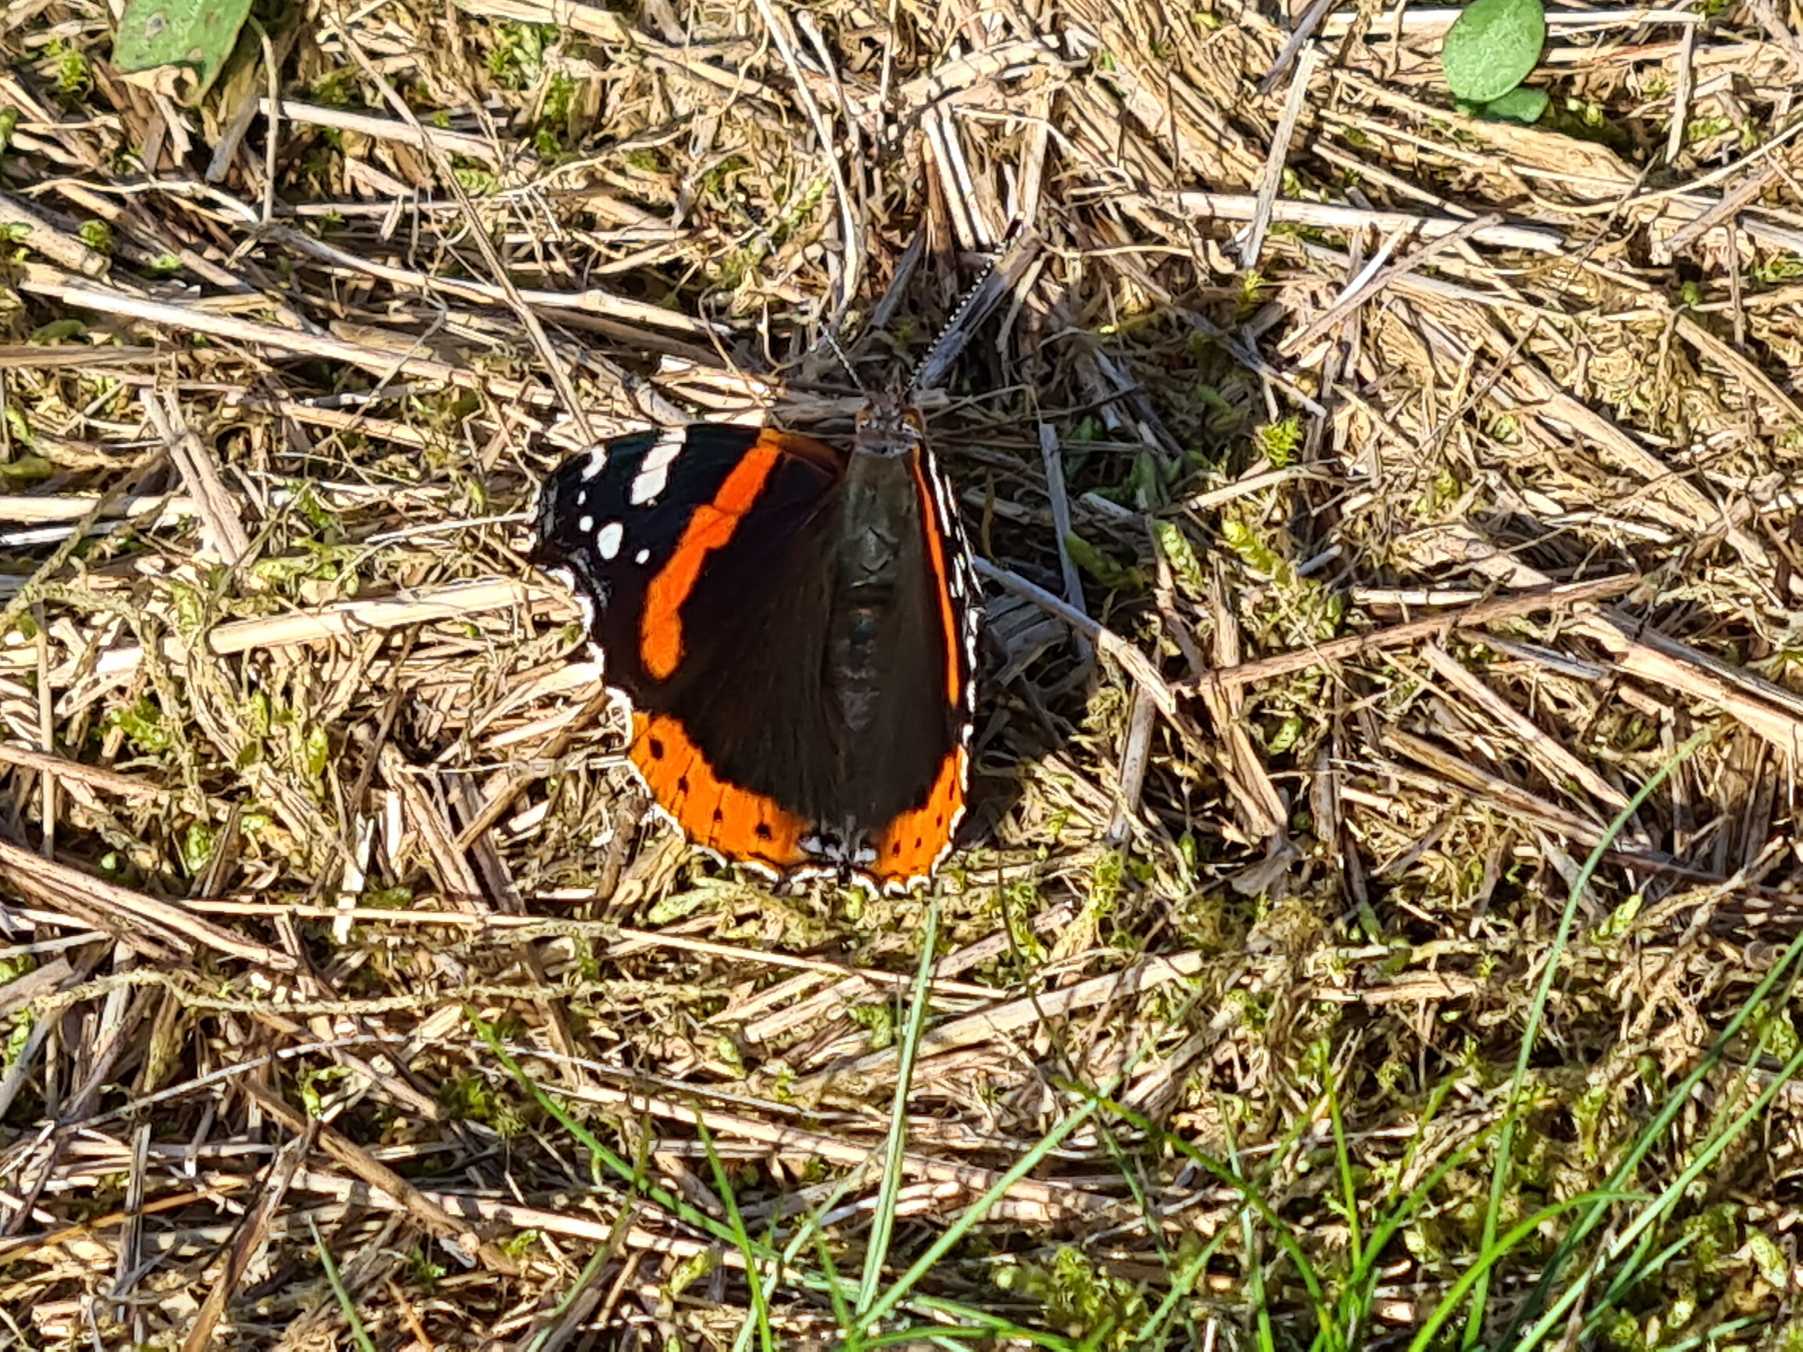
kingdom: Animalia
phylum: Arthropoda
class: Insecta
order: Lepidoptera
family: Nymphalidae
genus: Vanessa
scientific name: Vanessa atalanta
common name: Admiral
